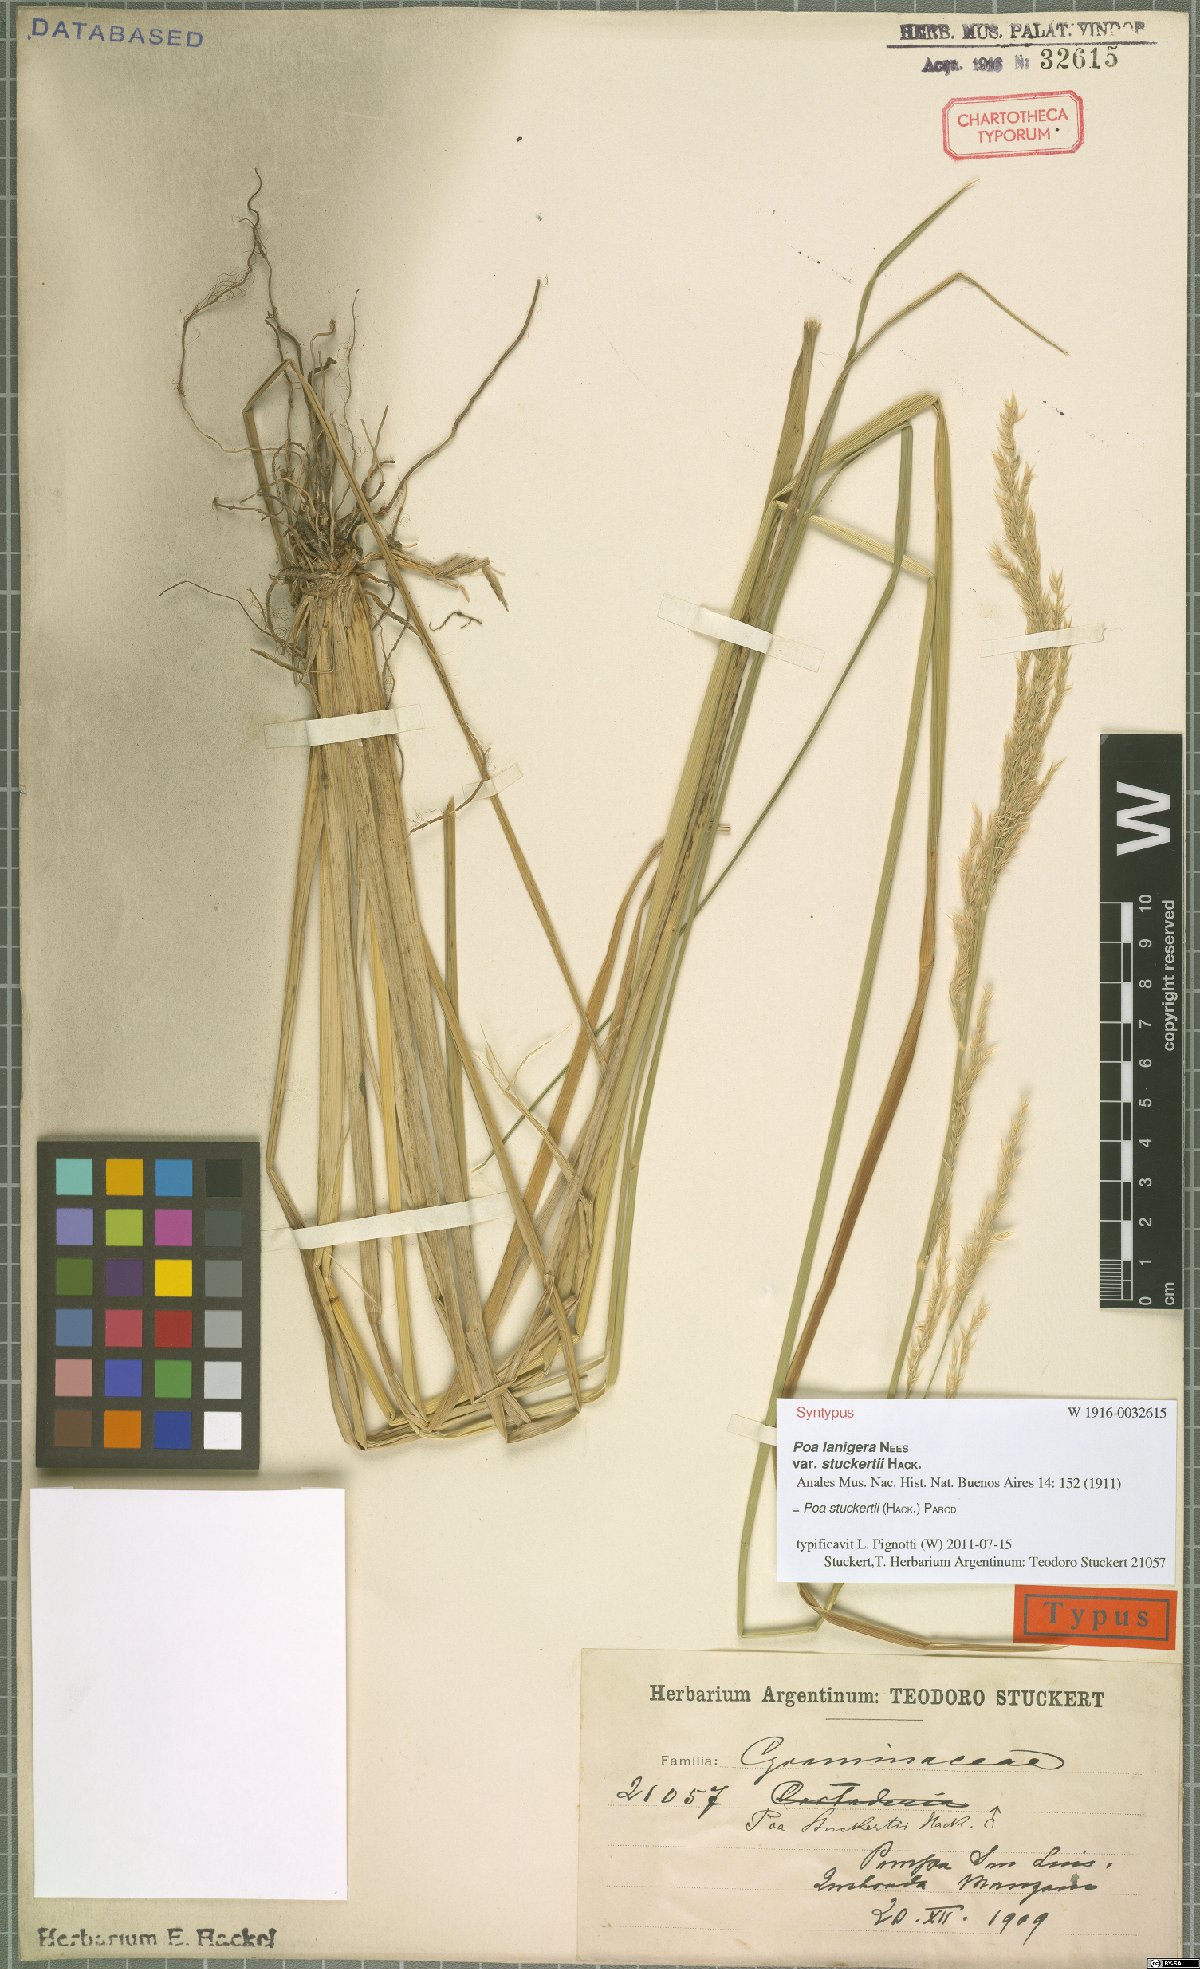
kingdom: Plantae
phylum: Tracheophyta
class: Liliopsida
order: Poales
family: Poaceae
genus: Poa
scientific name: Poa stuckertii
